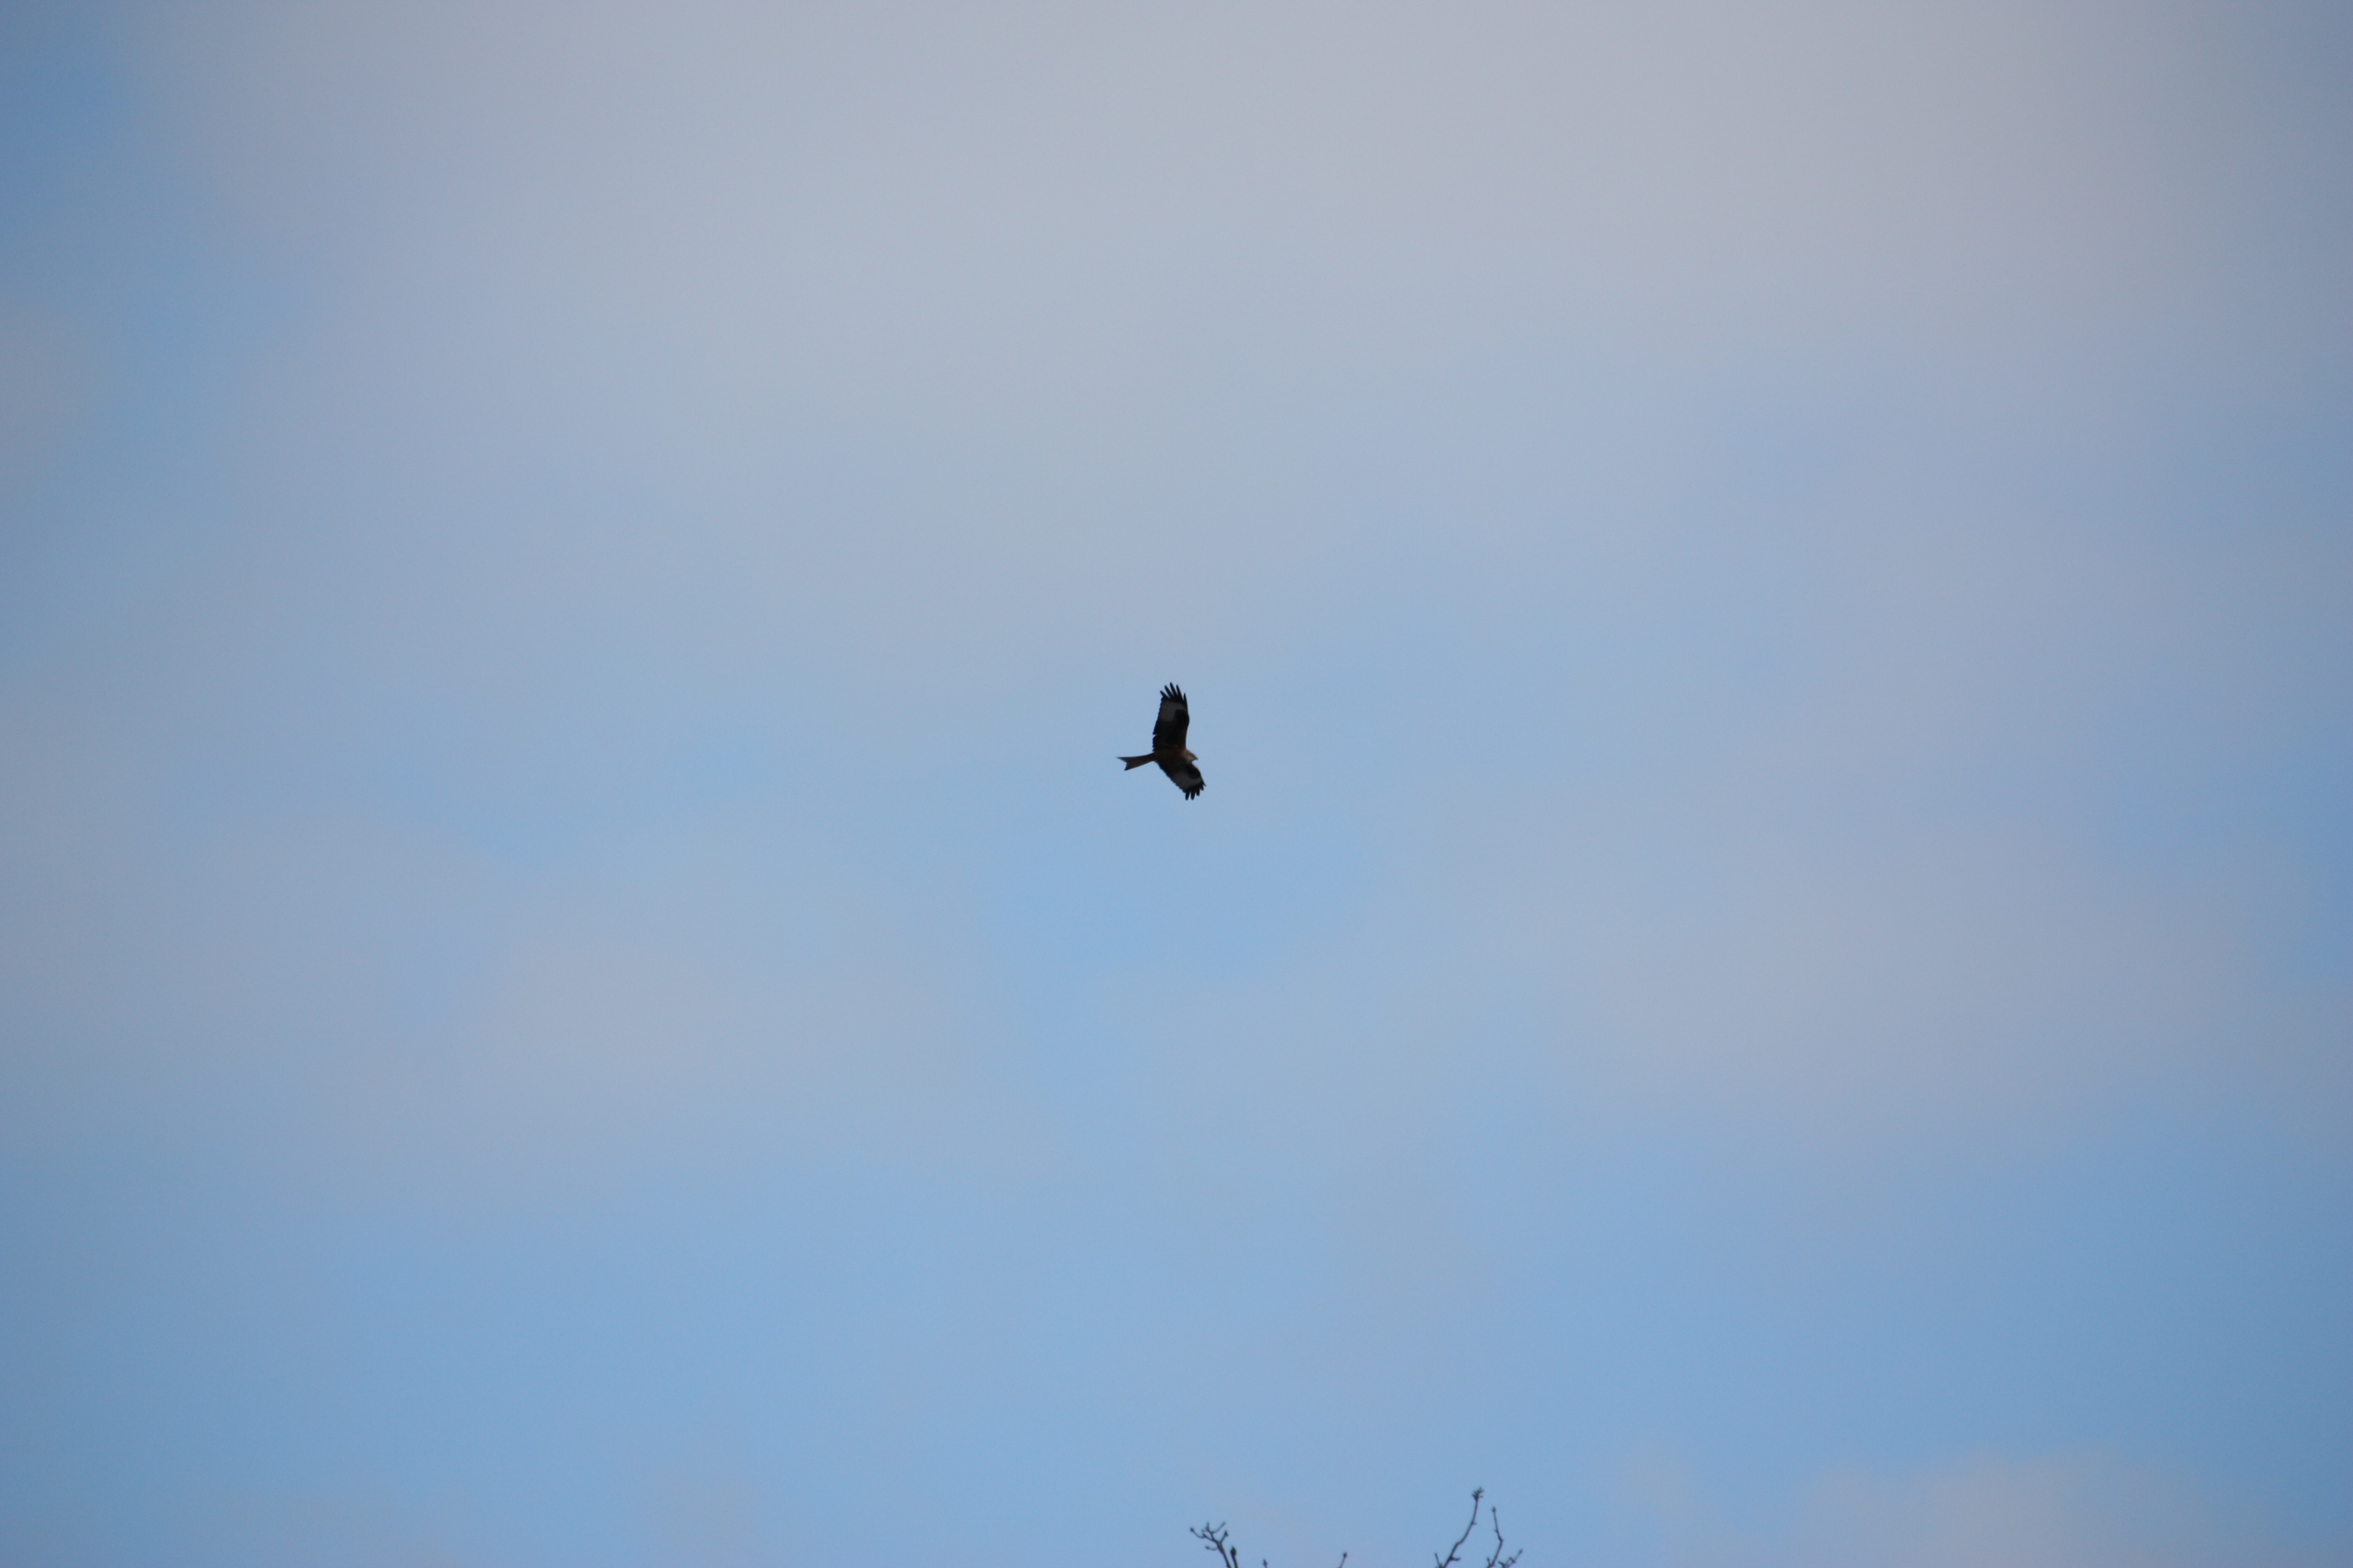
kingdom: Animalia
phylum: Chordata
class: Aves
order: Accipitriformes
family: Accipitridae
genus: Milvus
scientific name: Milvus milvus
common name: Rød glente
